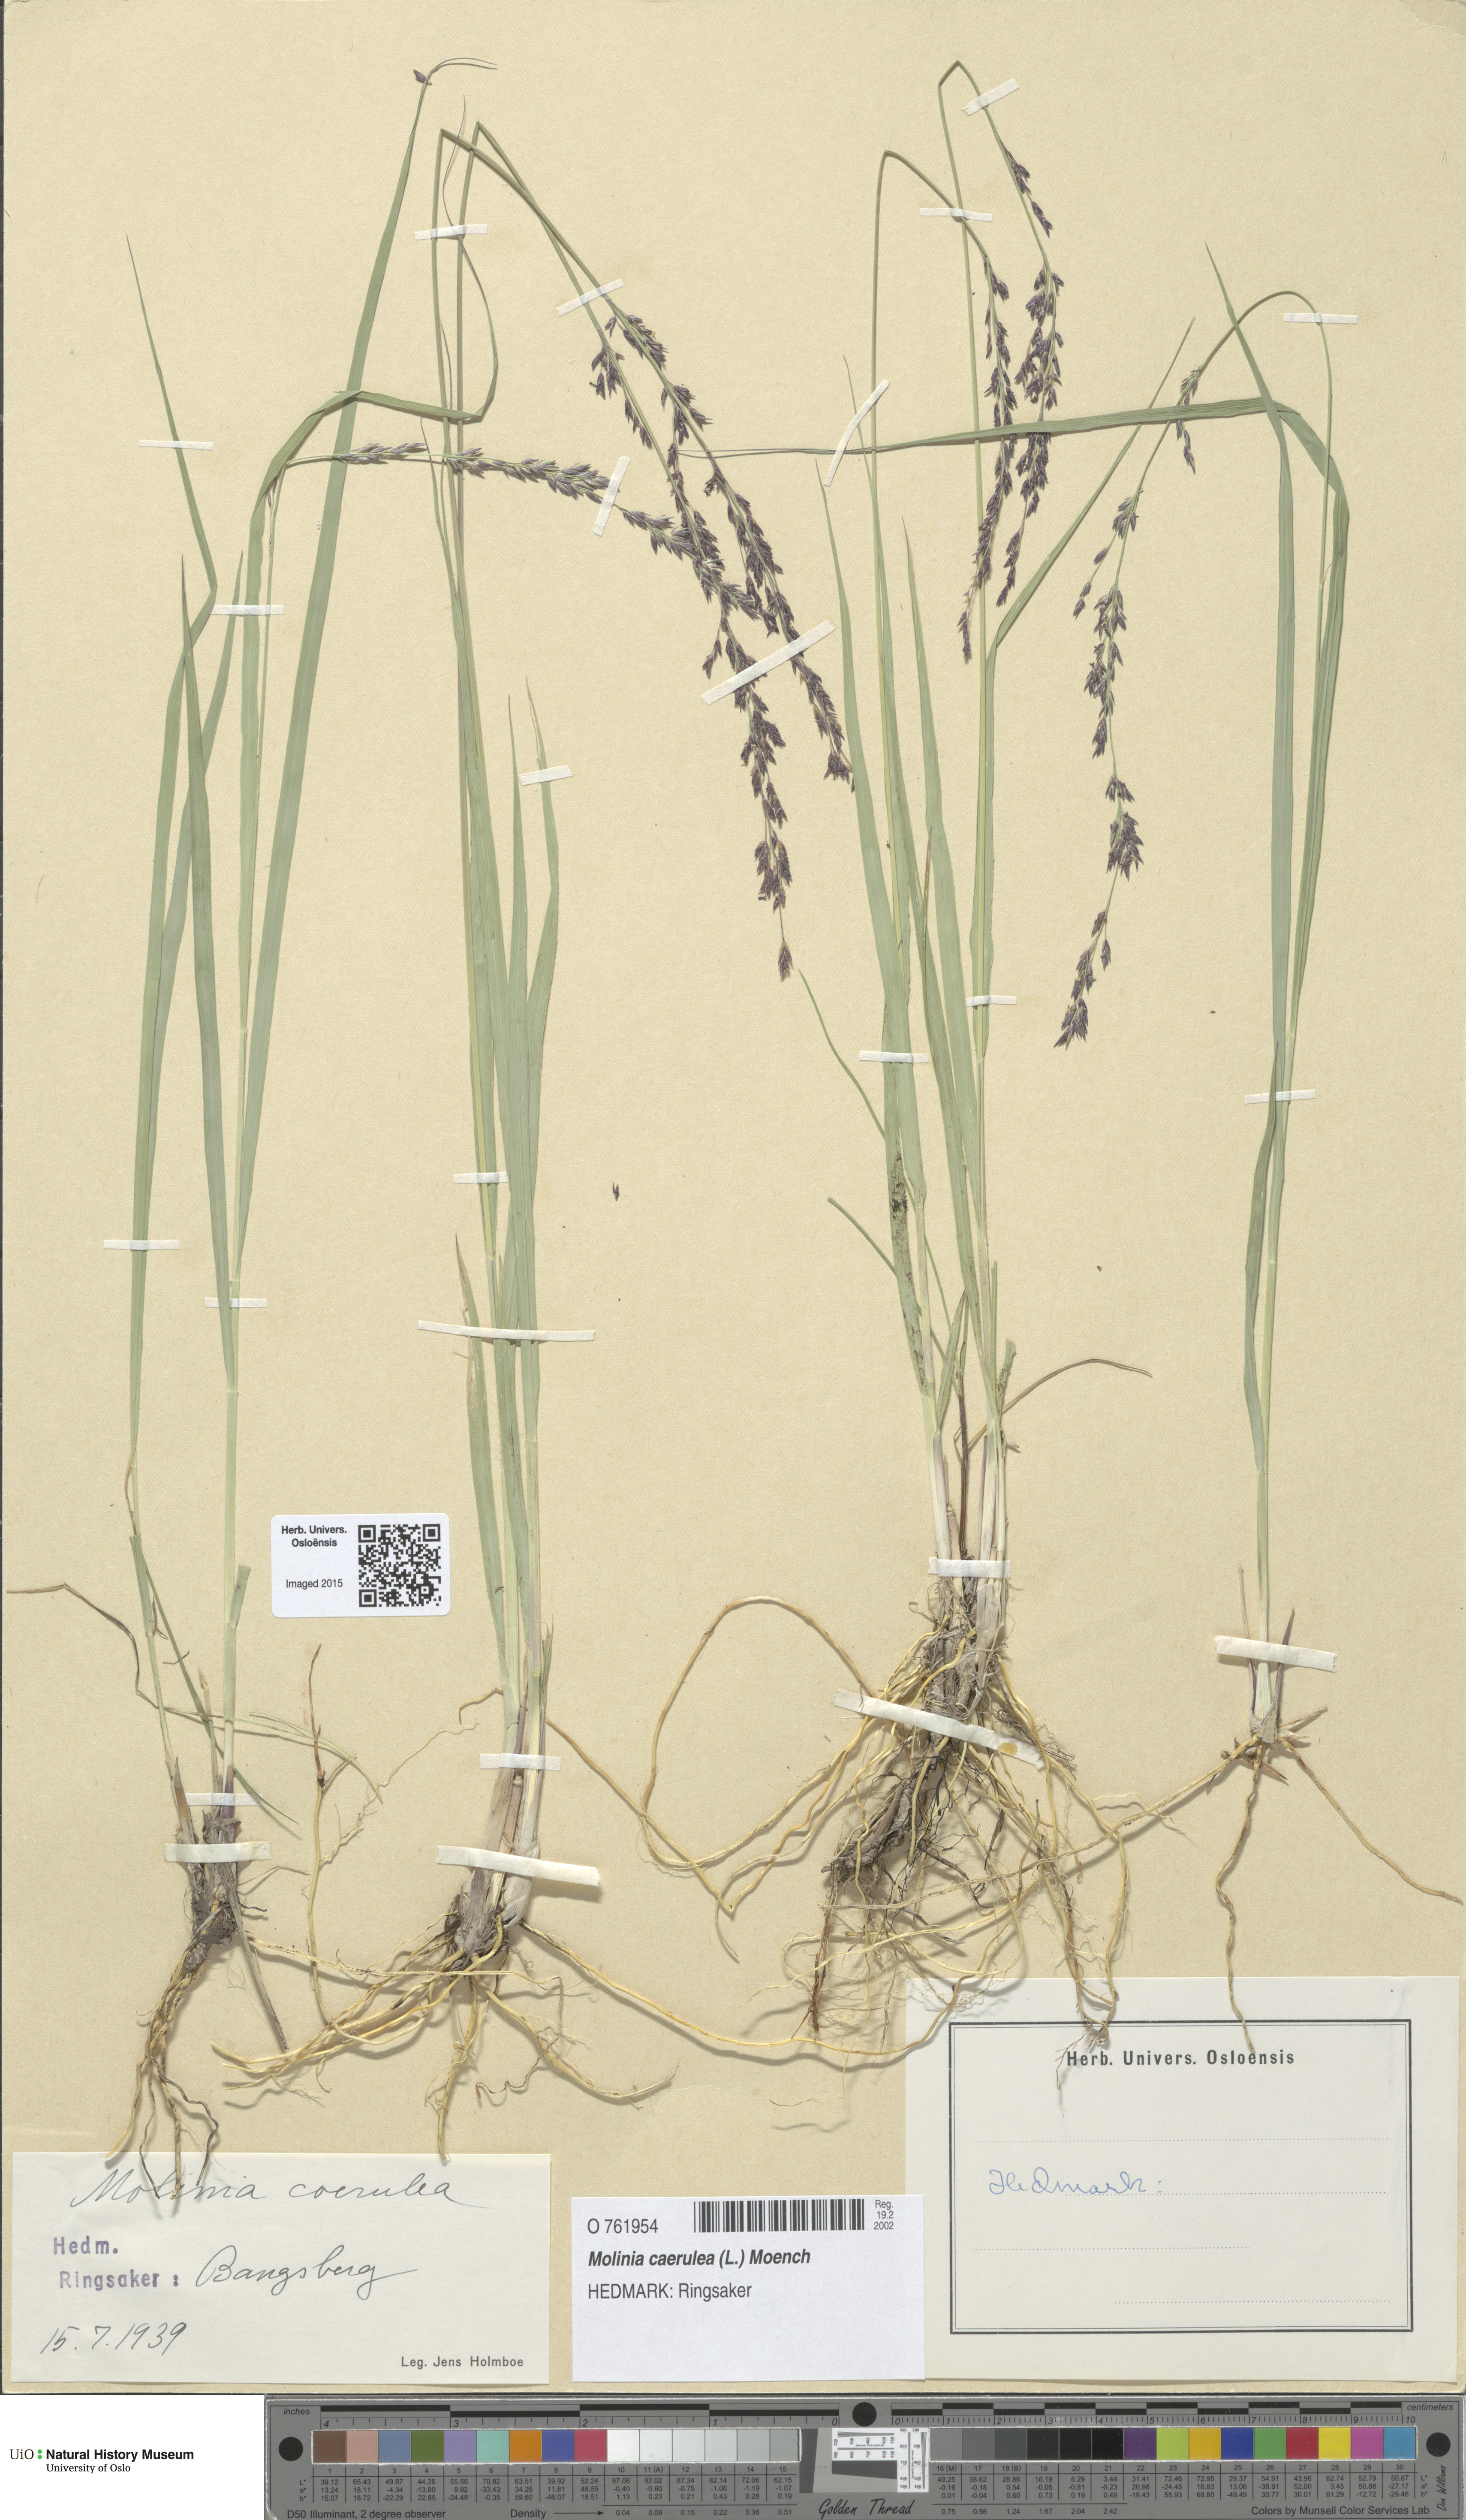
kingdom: Plantae
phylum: Tracheophyta
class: Liliopsida
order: Poales
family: Poaceae
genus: Molinia
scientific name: Molinia caerulea
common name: Purple moor-grass
